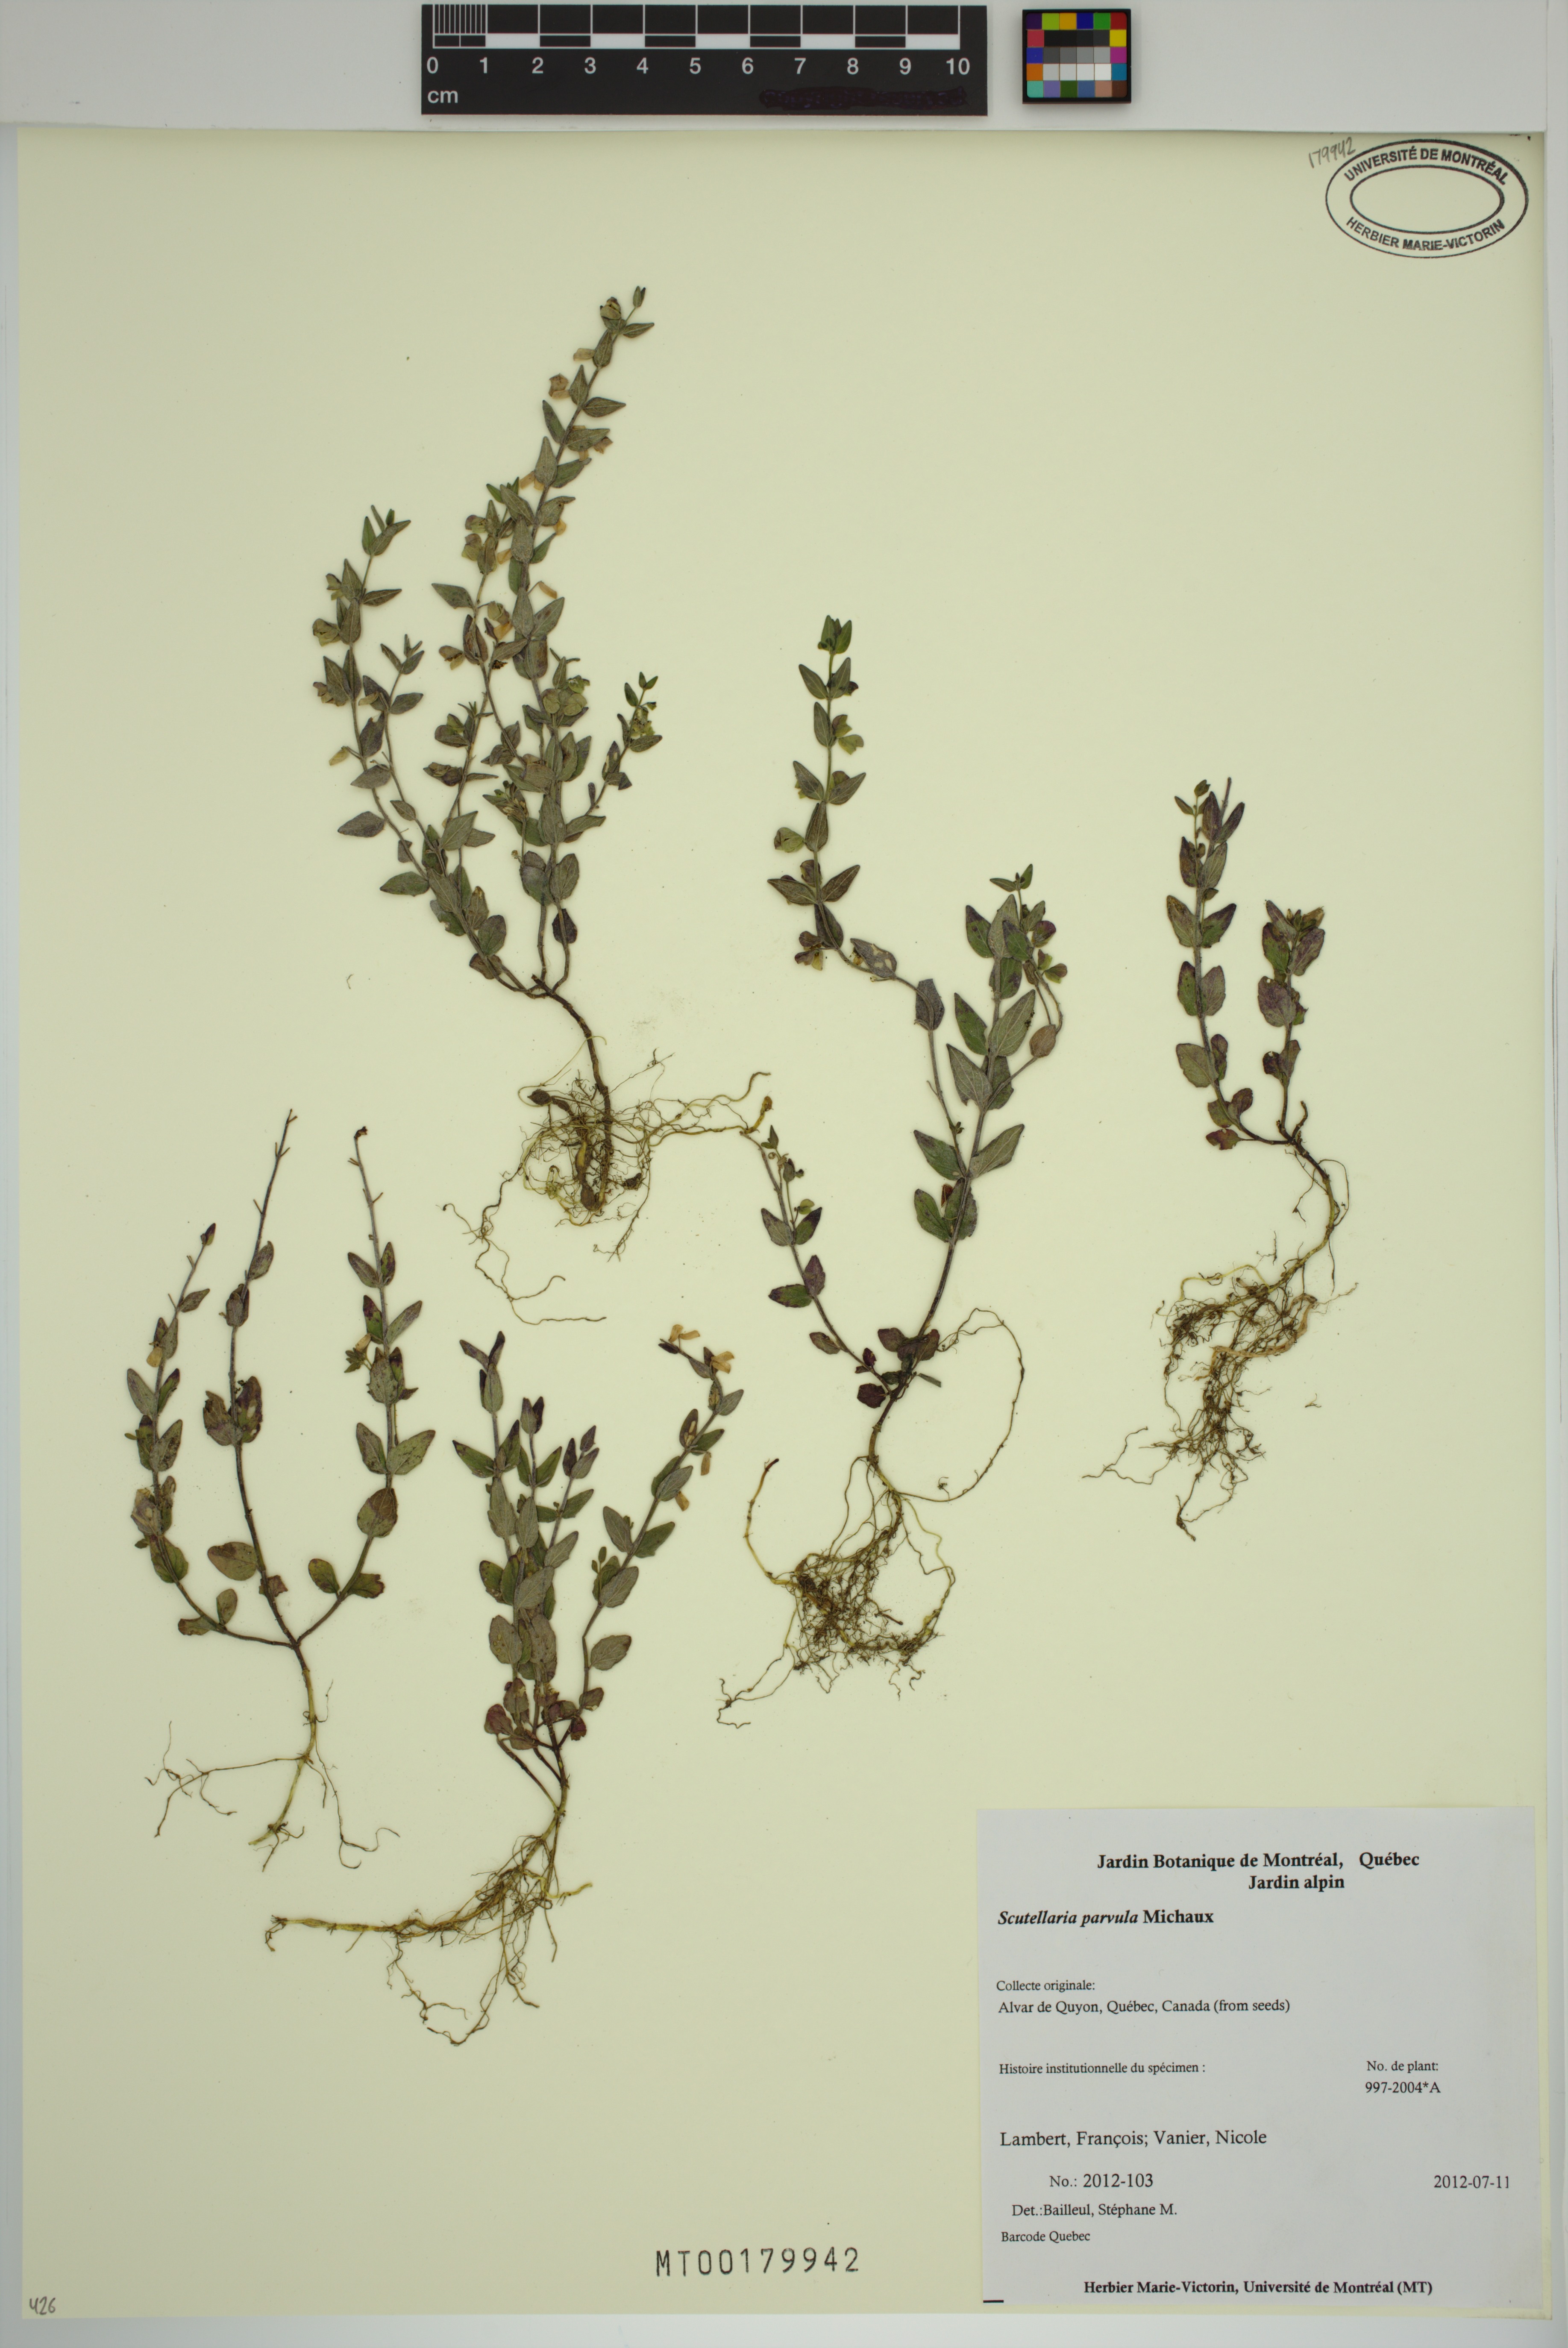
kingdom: Plantae
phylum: Tracheophyta
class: Magnoliopsida
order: Lamiales
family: Lamiaceae
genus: Scutellaria
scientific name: Scutellaria parvula
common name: Little scullcap
